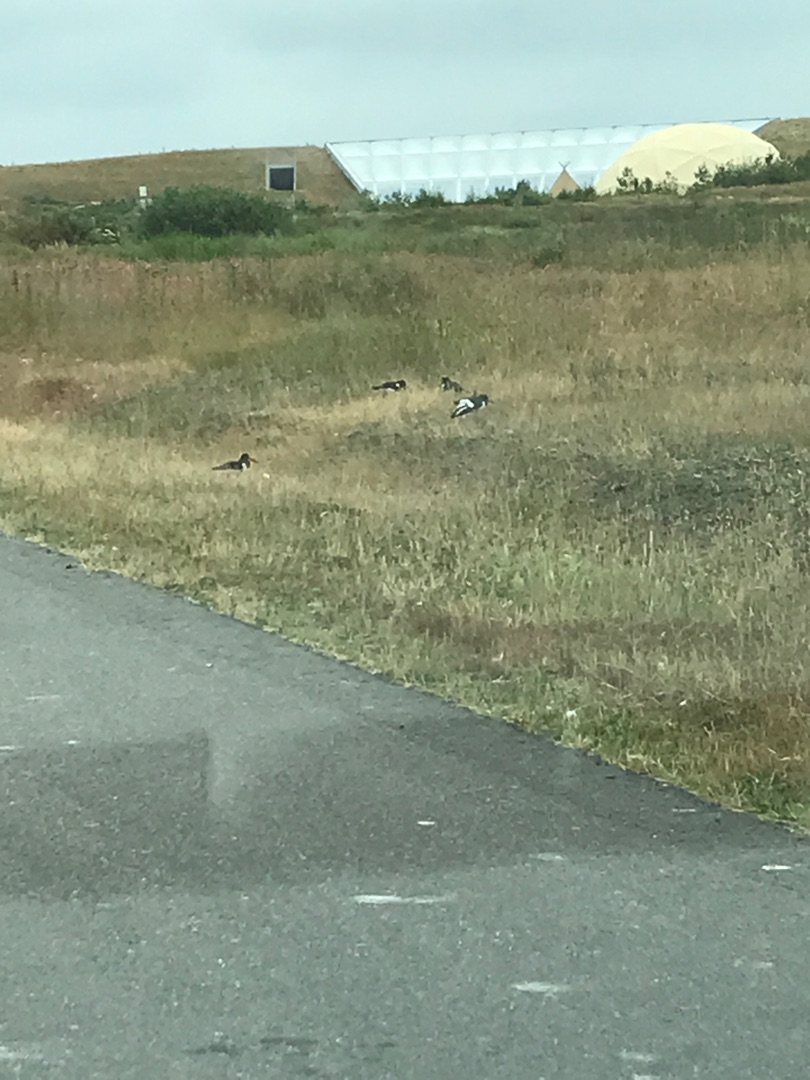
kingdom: Animalia
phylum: Chordata
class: Aves
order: Charadriiformes
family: Haematopodidae
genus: Haematopus
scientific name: Haematopus ostralegus
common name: Strandskade
